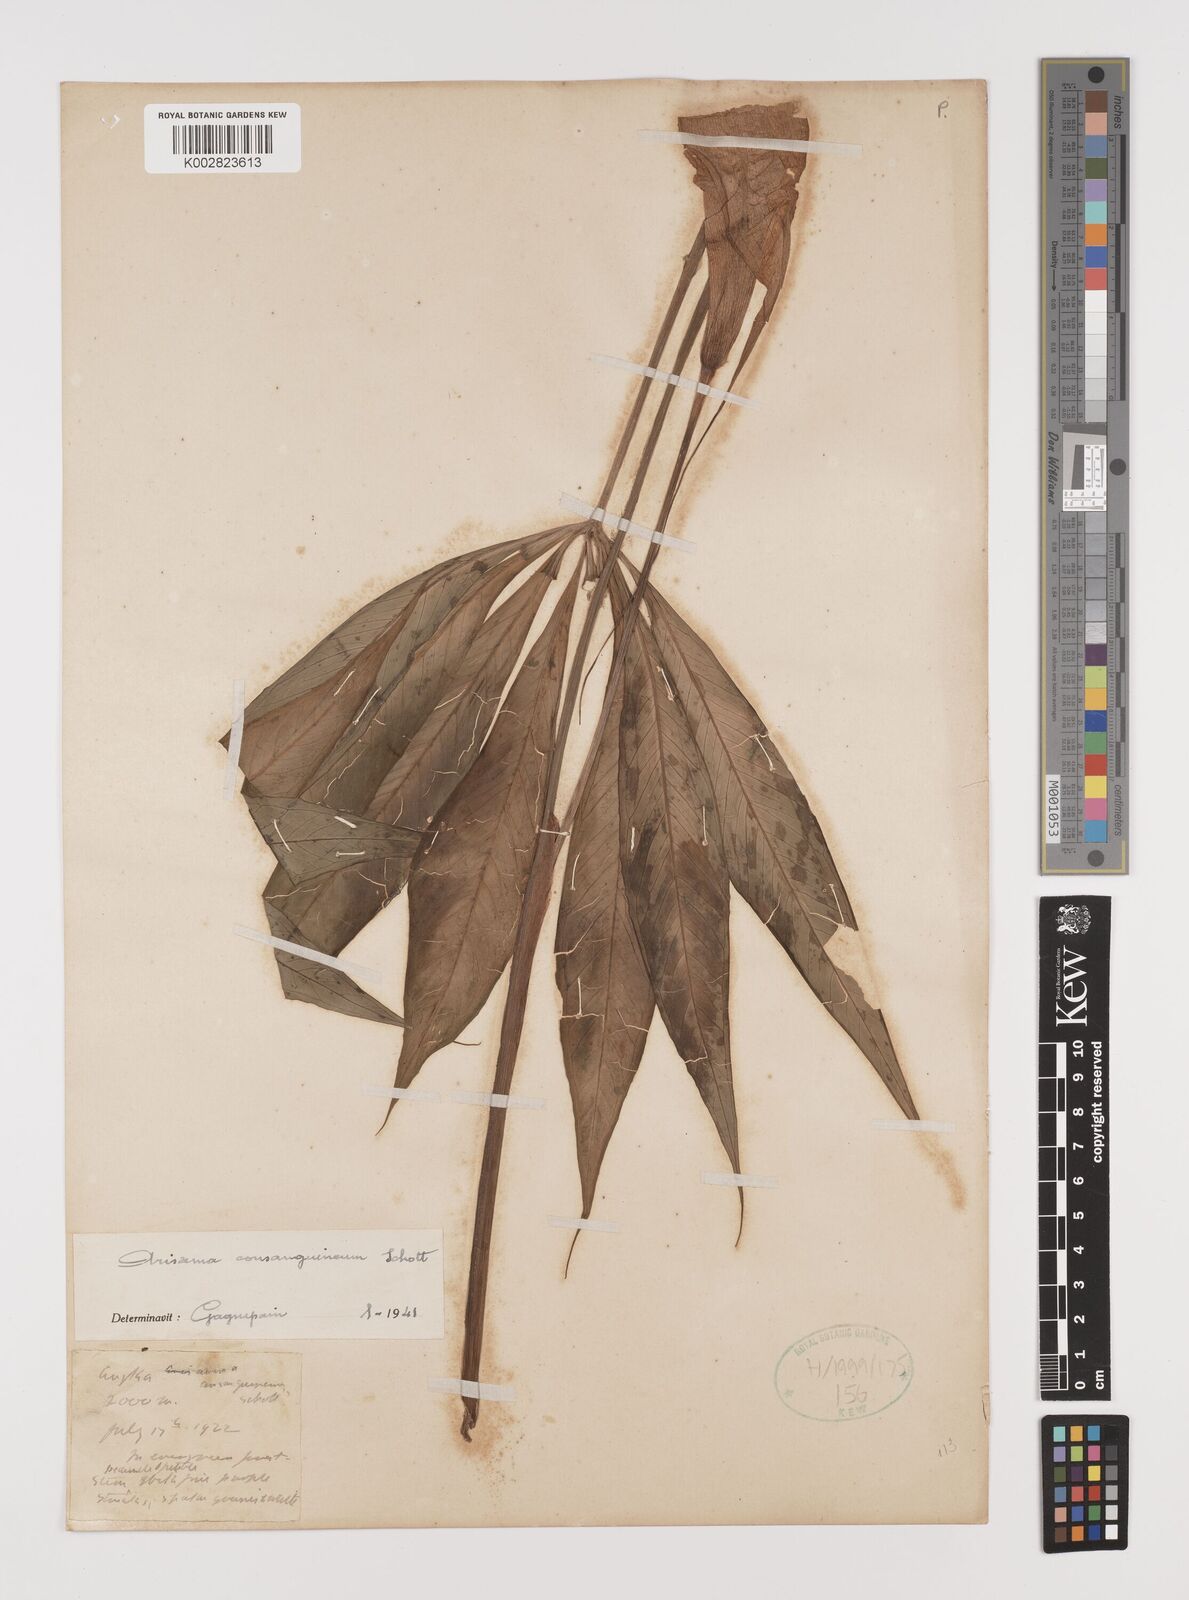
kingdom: Plantae
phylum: Tracheophyta
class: Liliopsida
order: Alismatales
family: Araceae
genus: Arisaema
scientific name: Arisaema consanguineum
